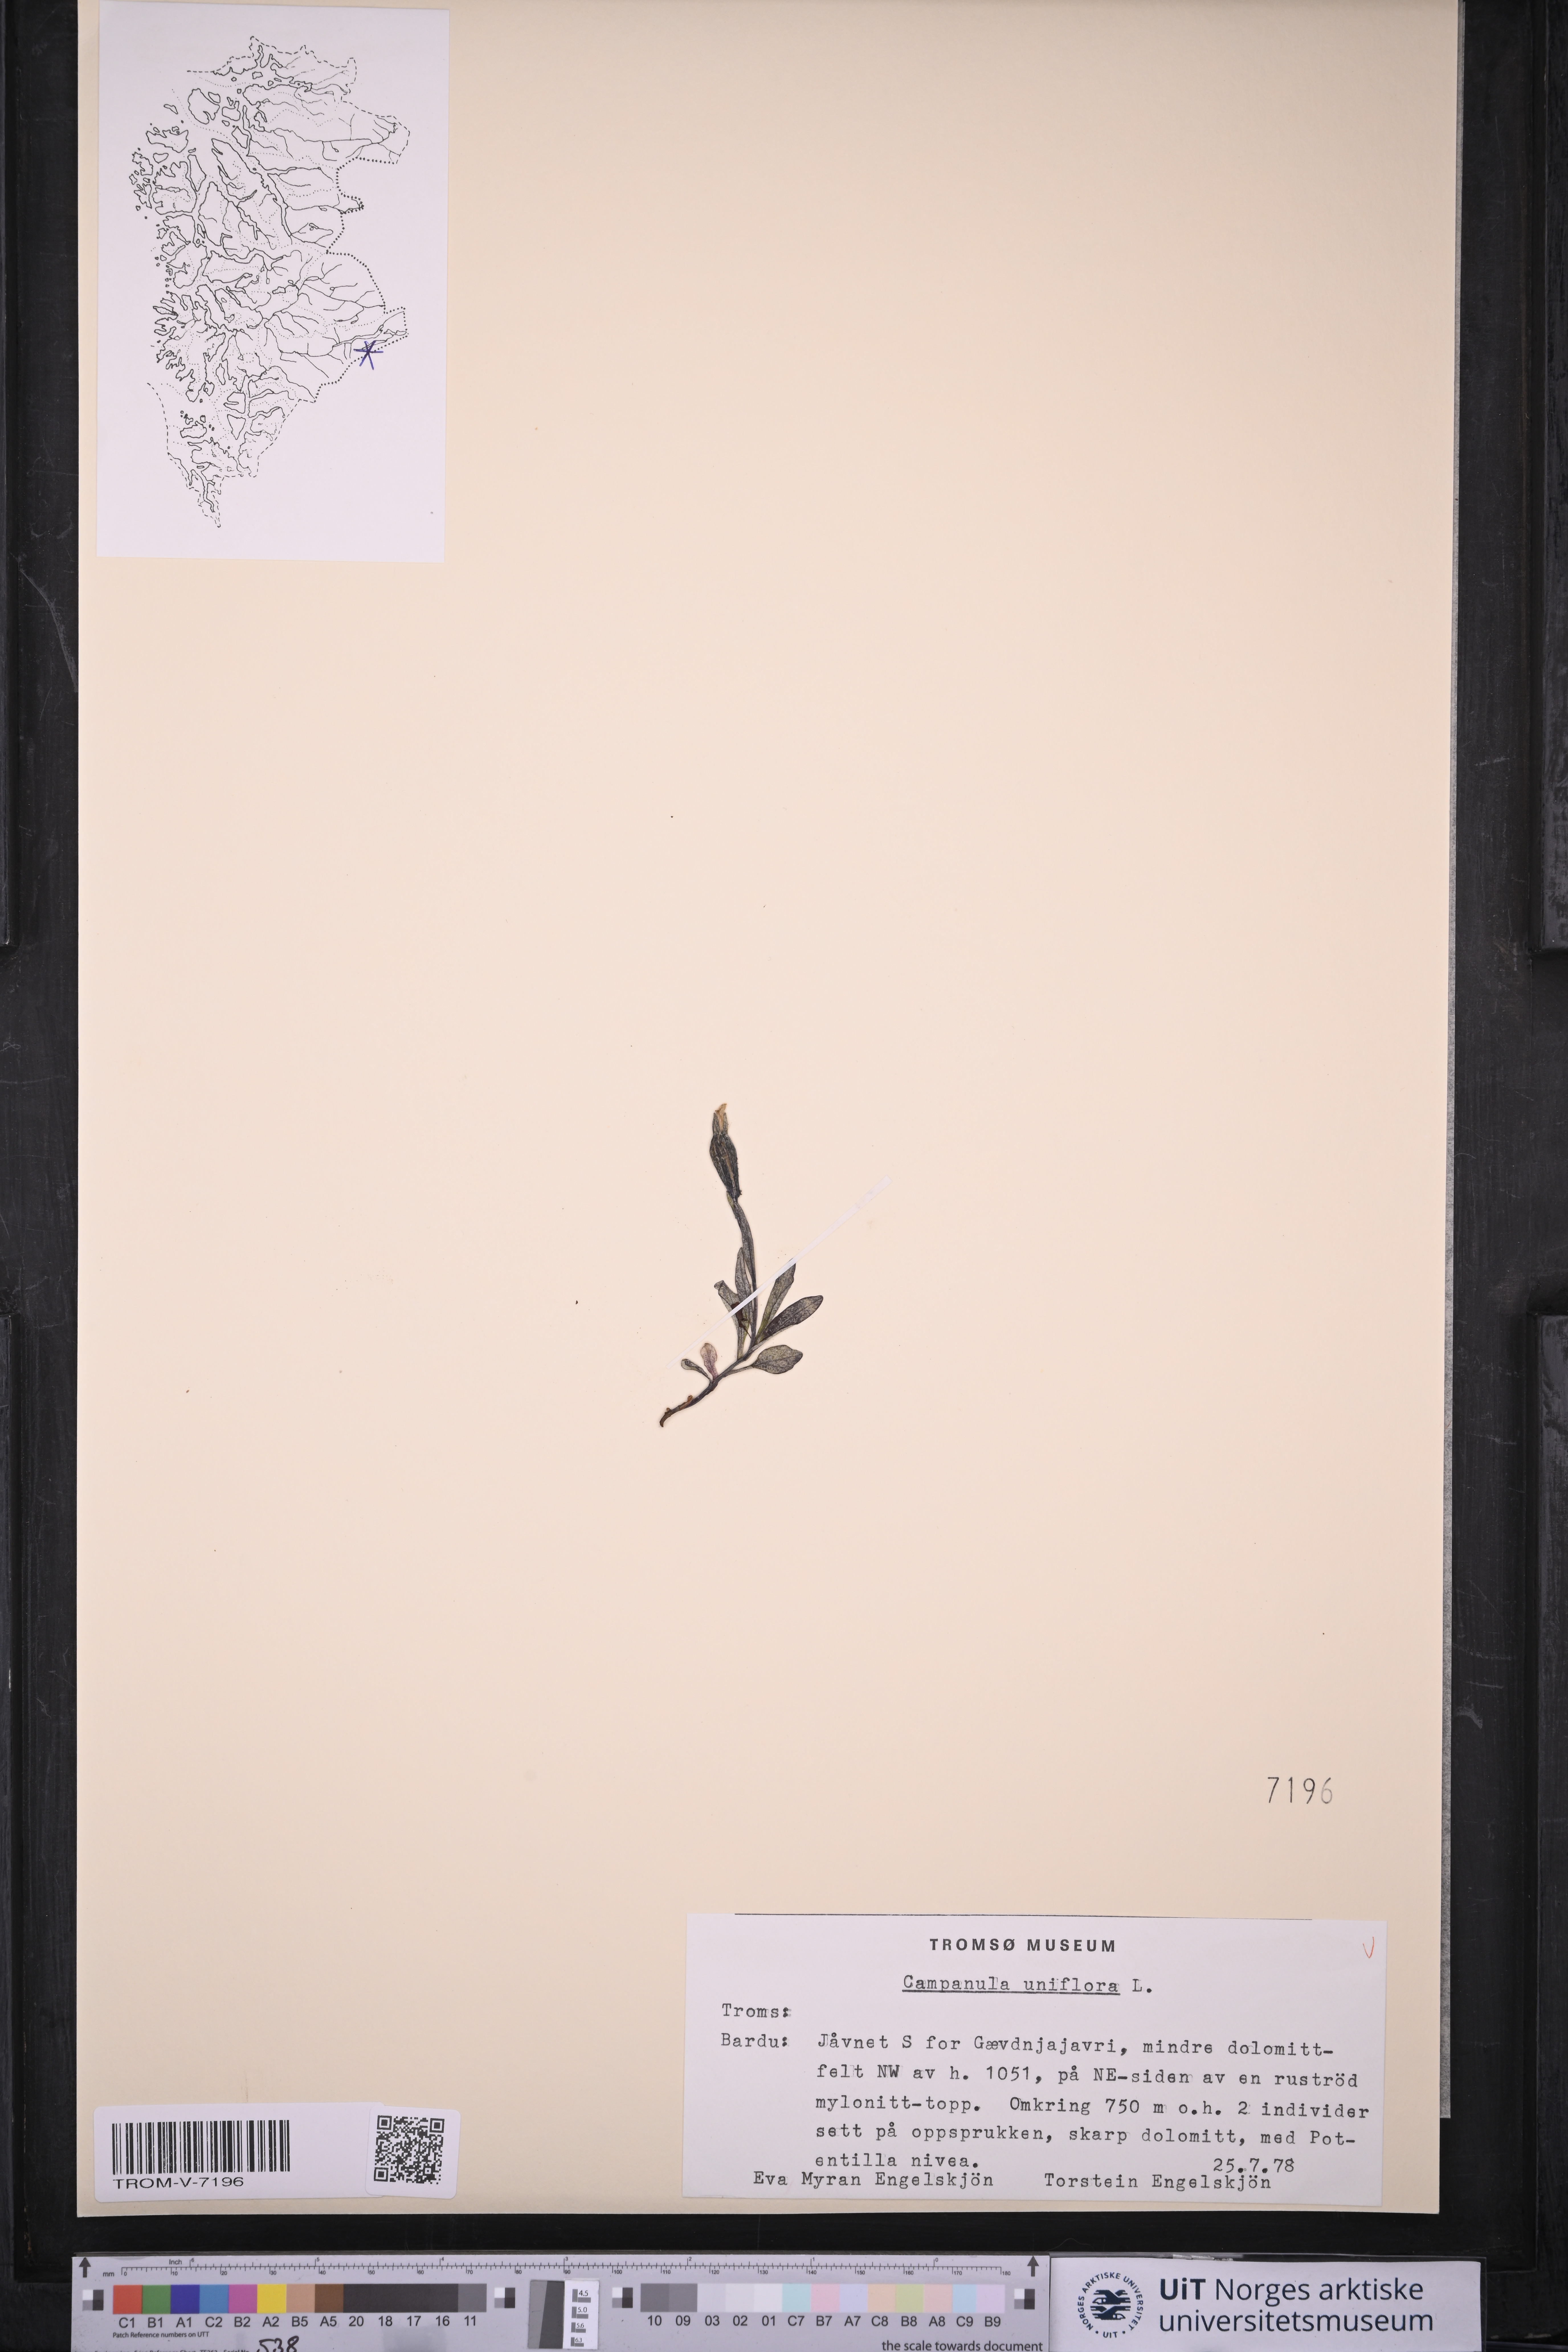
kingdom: Plantae
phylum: Tracheophyta
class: Magnoliopsida
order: Asterales
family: Campanulaceae
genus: Melanocalyx
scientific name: Melanocalyx uniflora
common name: Alpine harebell
